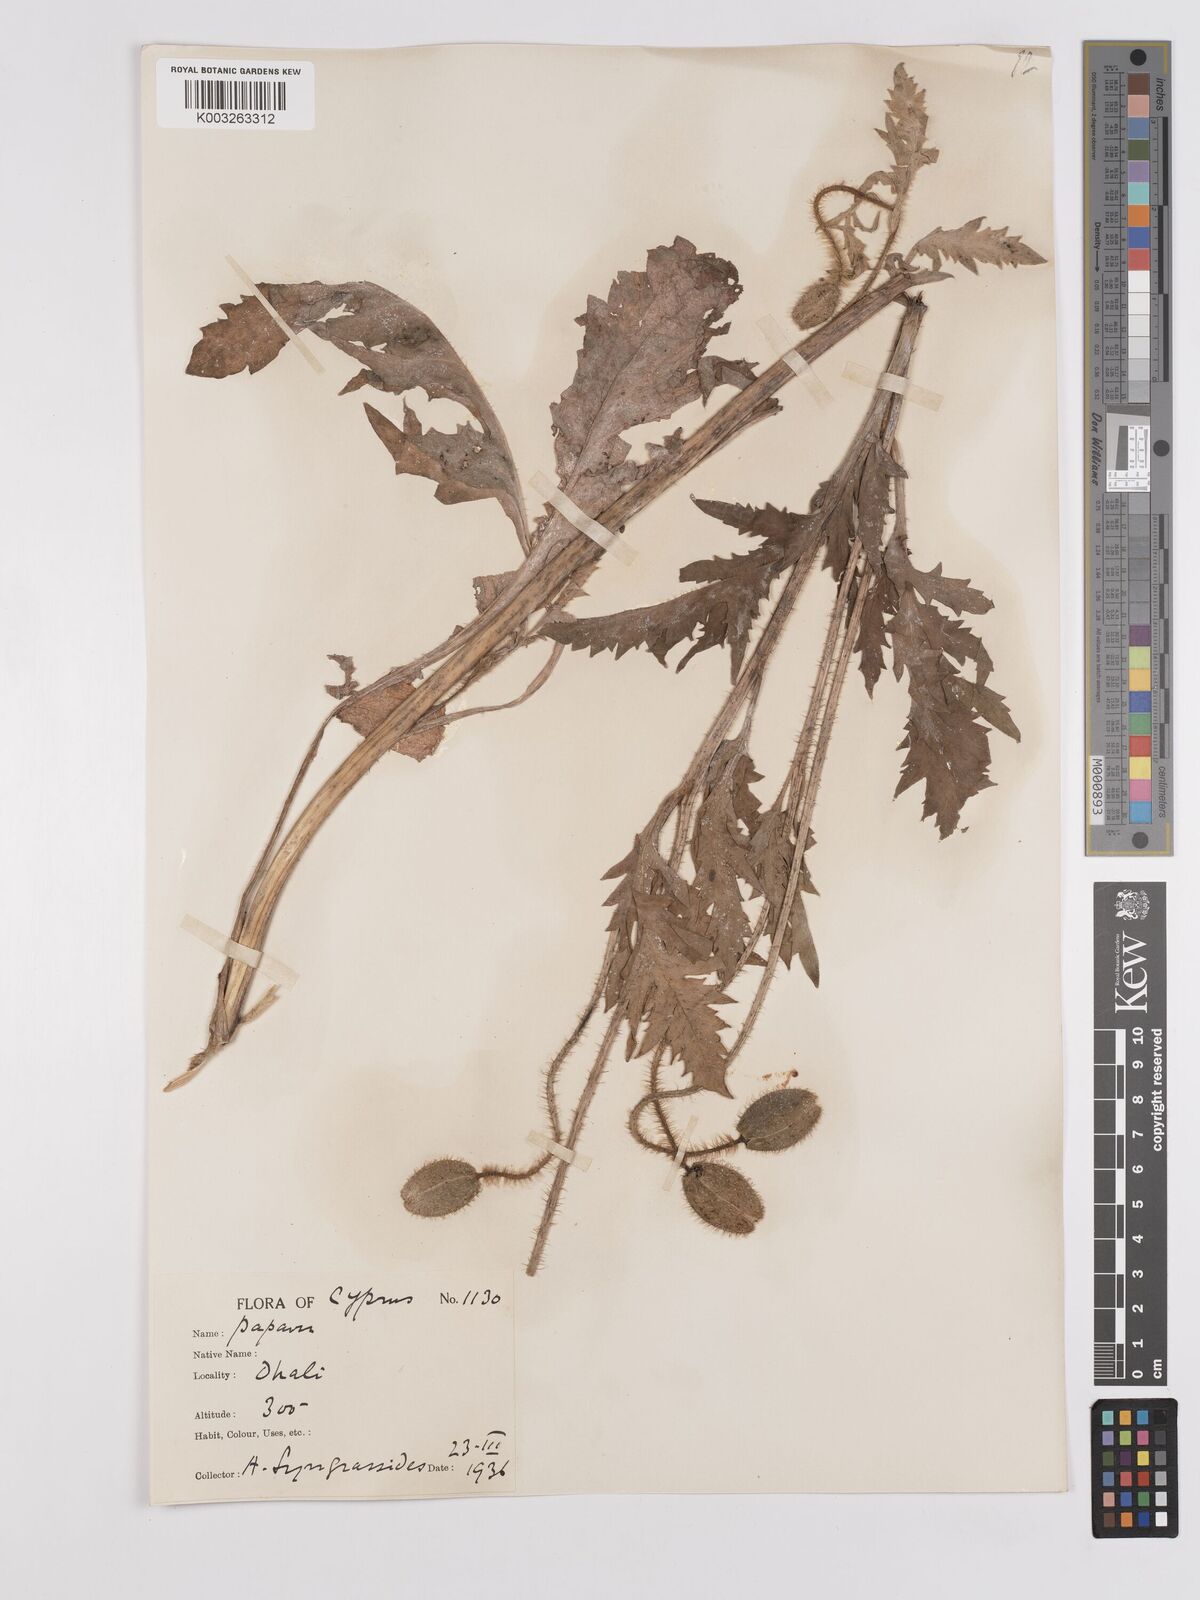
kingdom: Plantae
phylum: Tracheophyta
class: Magnoliopsida
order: Ranunculales
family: Papaveraceae
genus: Papaver
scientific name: Papaver rhoeas
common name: Corn poppy
